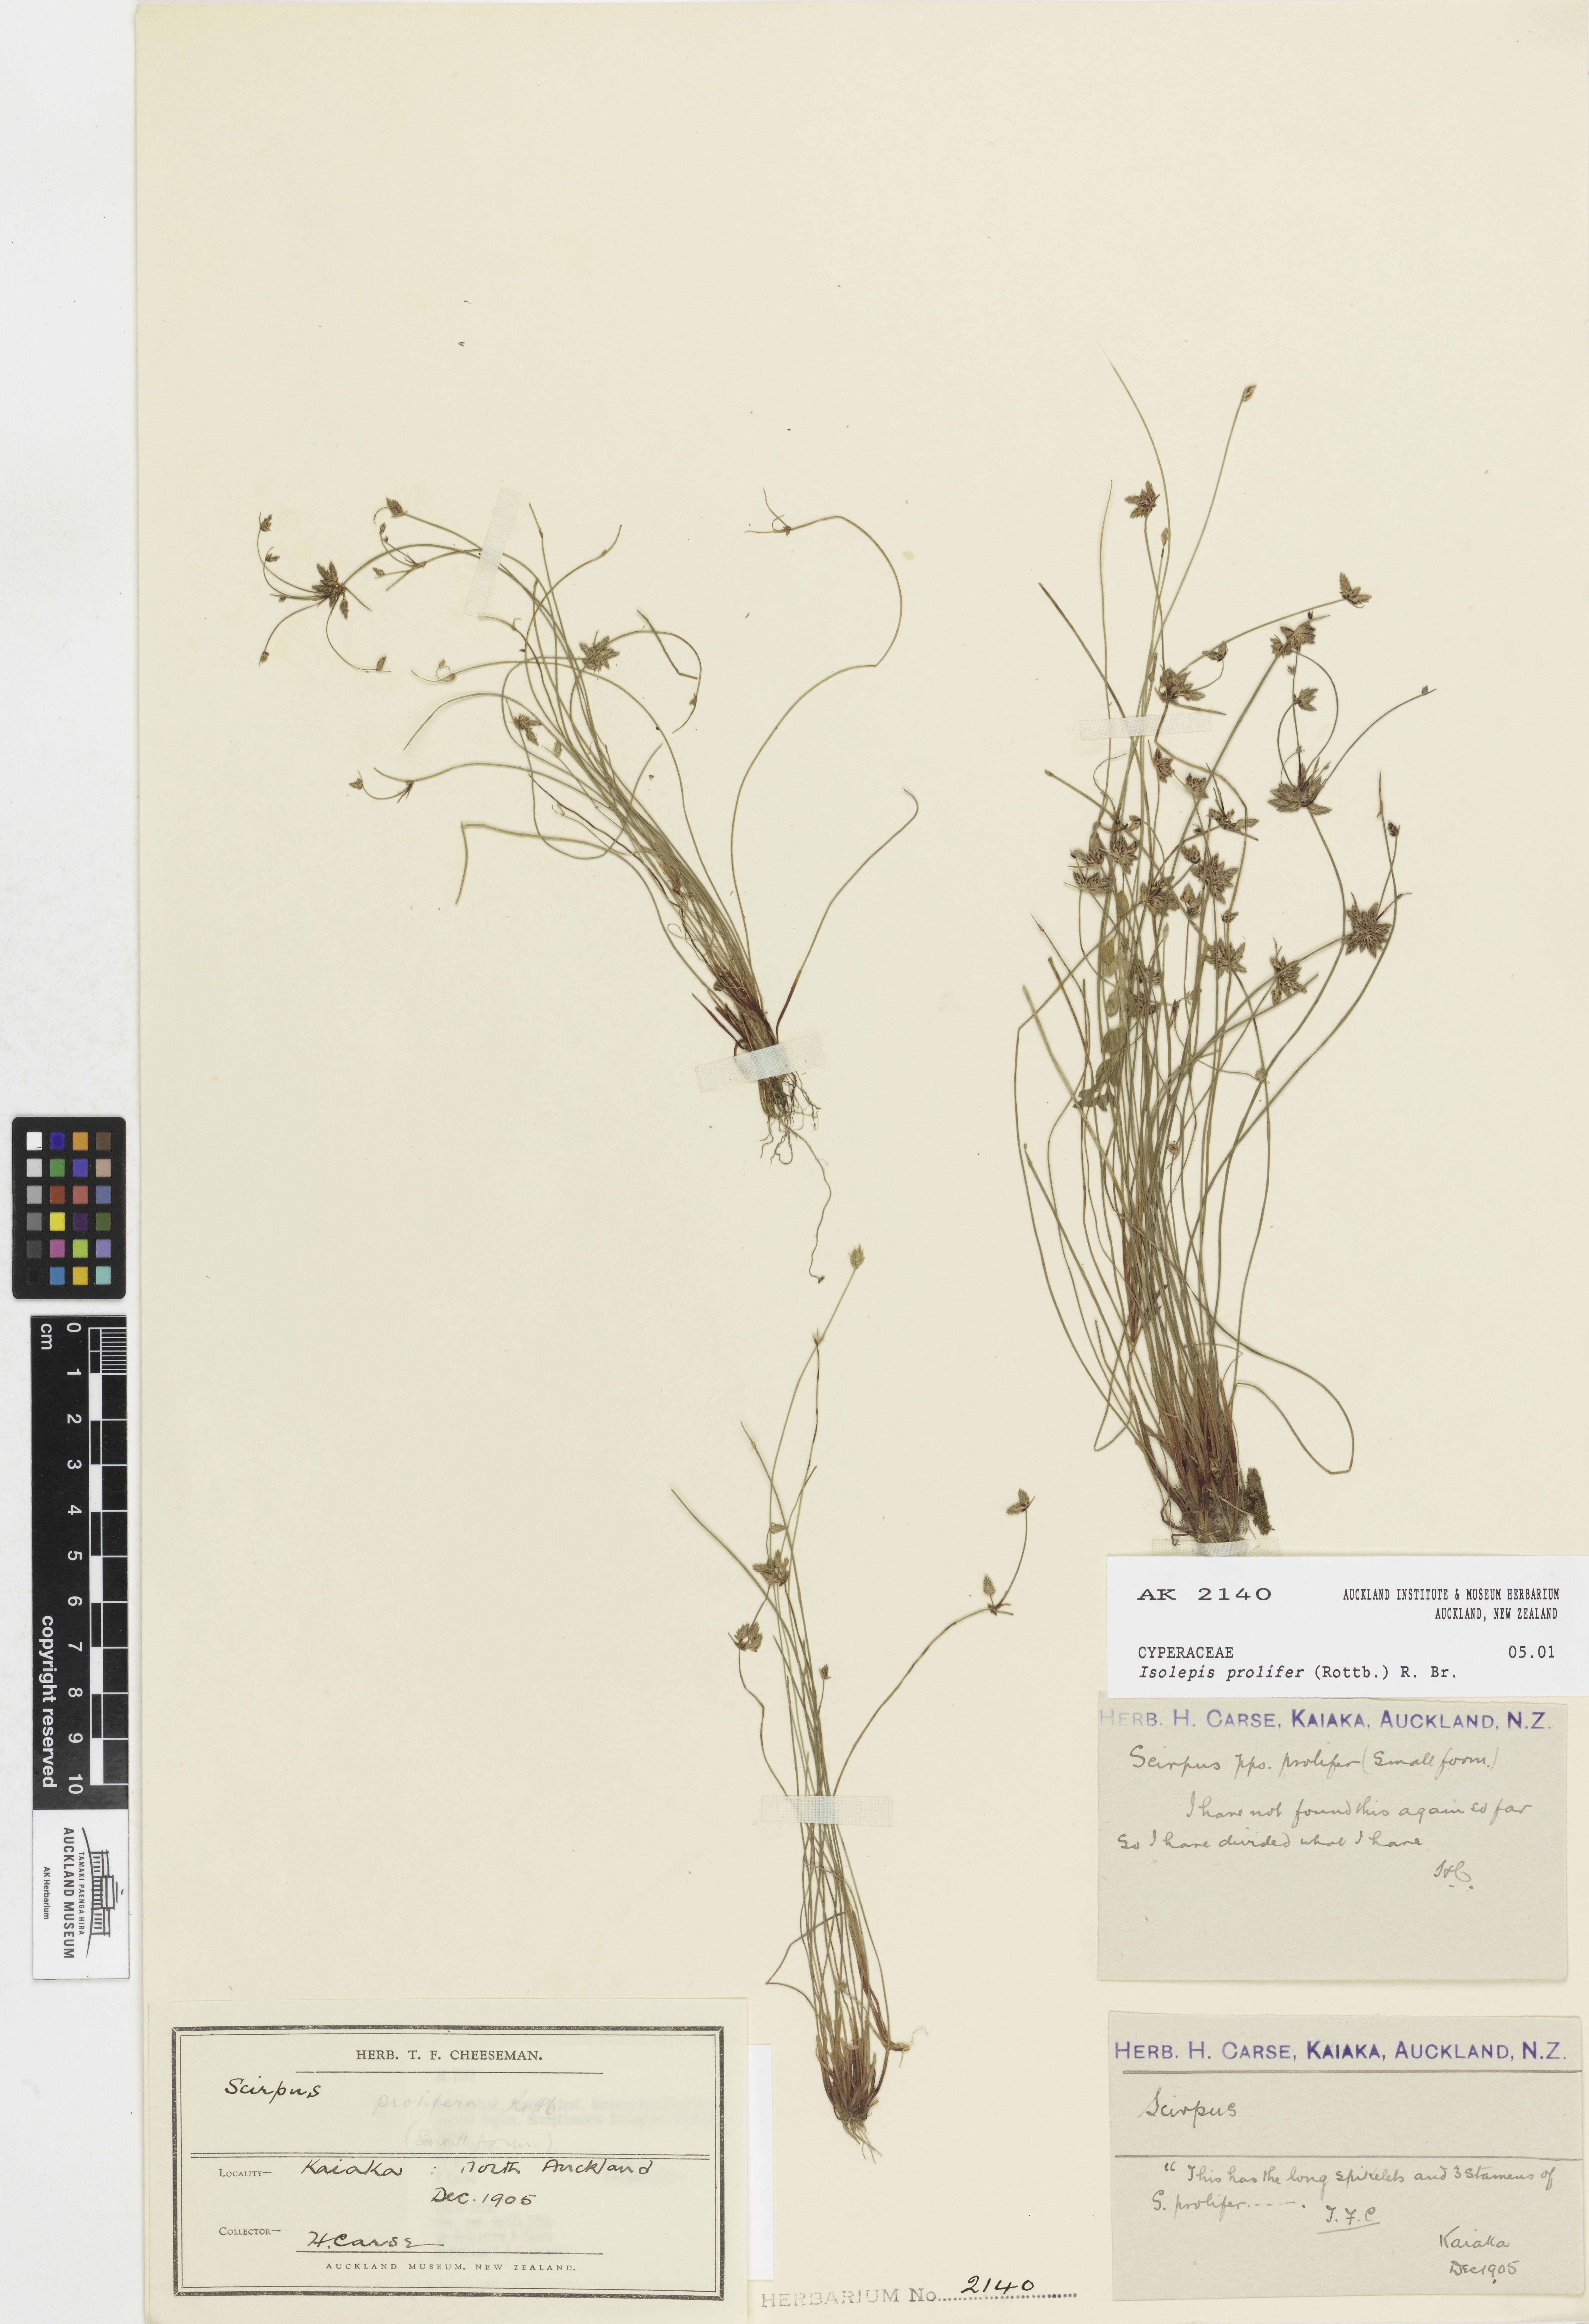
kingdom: Plantae
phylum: Tracheophyta
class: Liliopsida
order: Poales
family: Cyperaceae
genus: Isolepis
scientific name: Isolepis prolifera
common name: Proliferating bulrush
